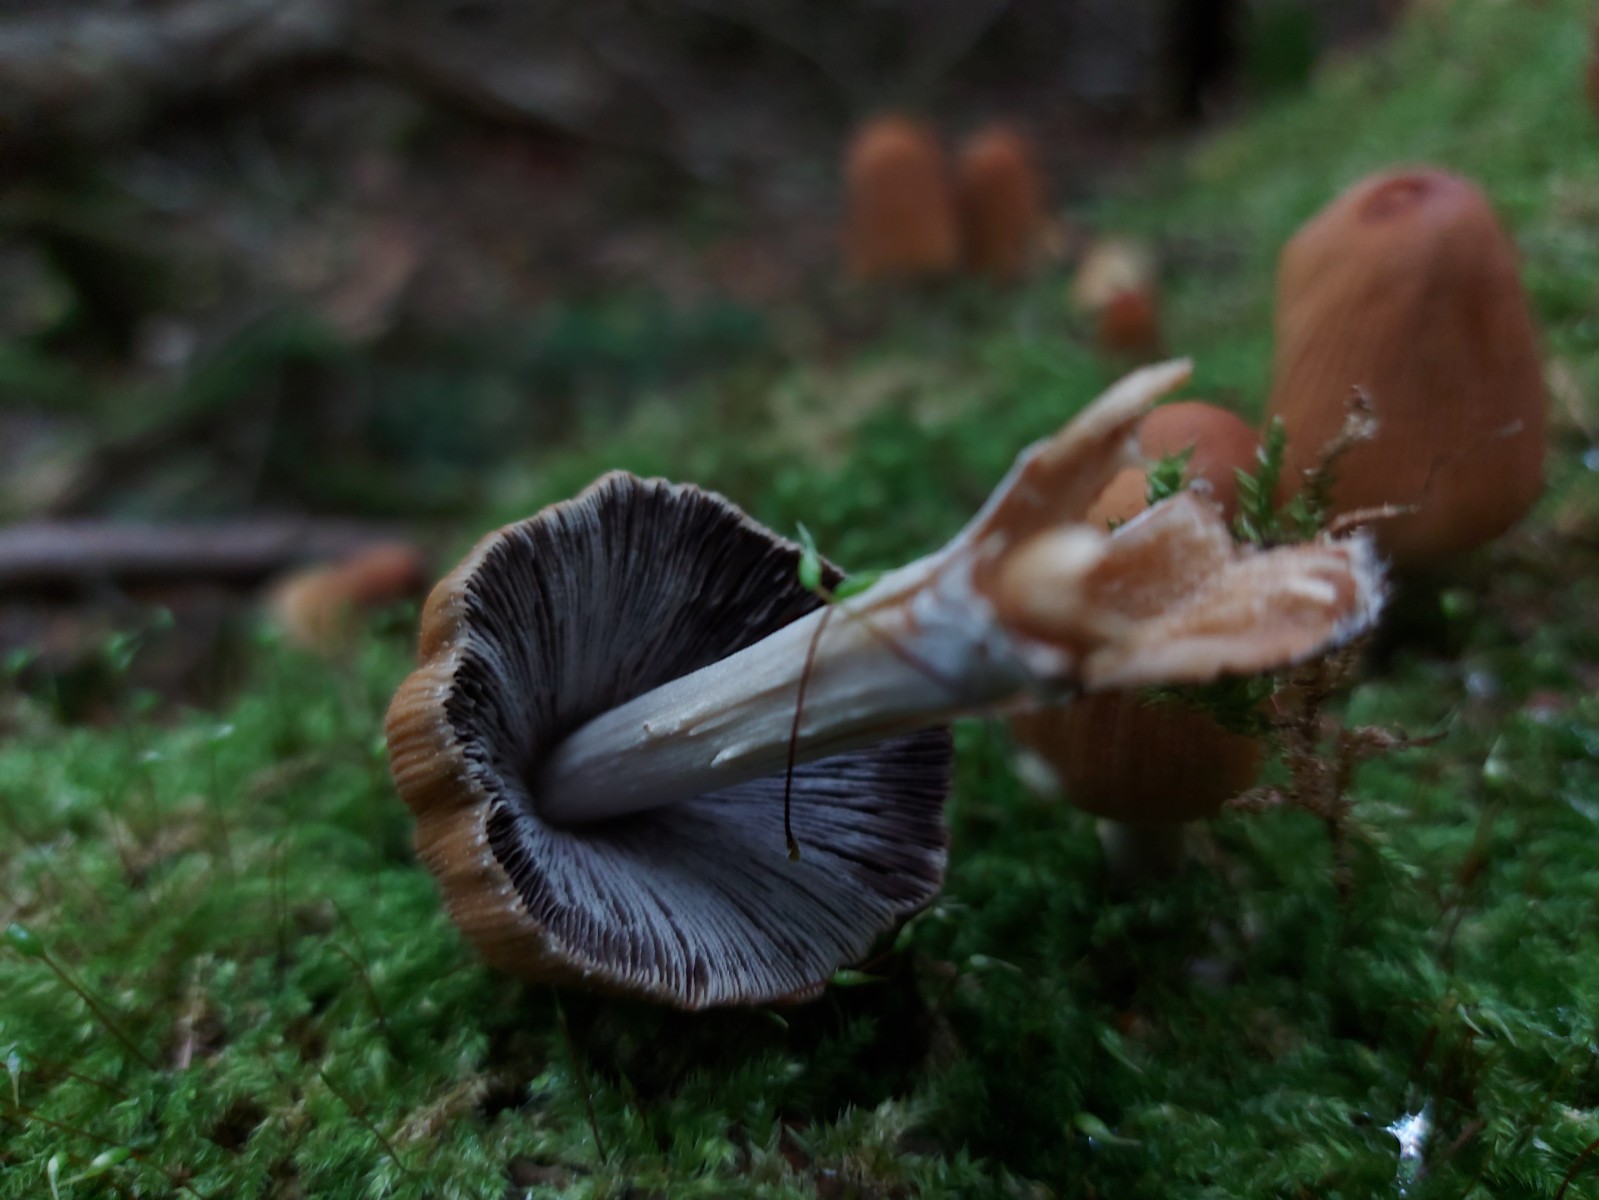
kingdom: Fungi
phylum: Basidiomycota
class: Agaricomycetes
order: Agaricales
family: Psathyrellaceae
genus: Coprinellus
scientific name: Coprinellus micaceus
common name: glimmer-blækhat
